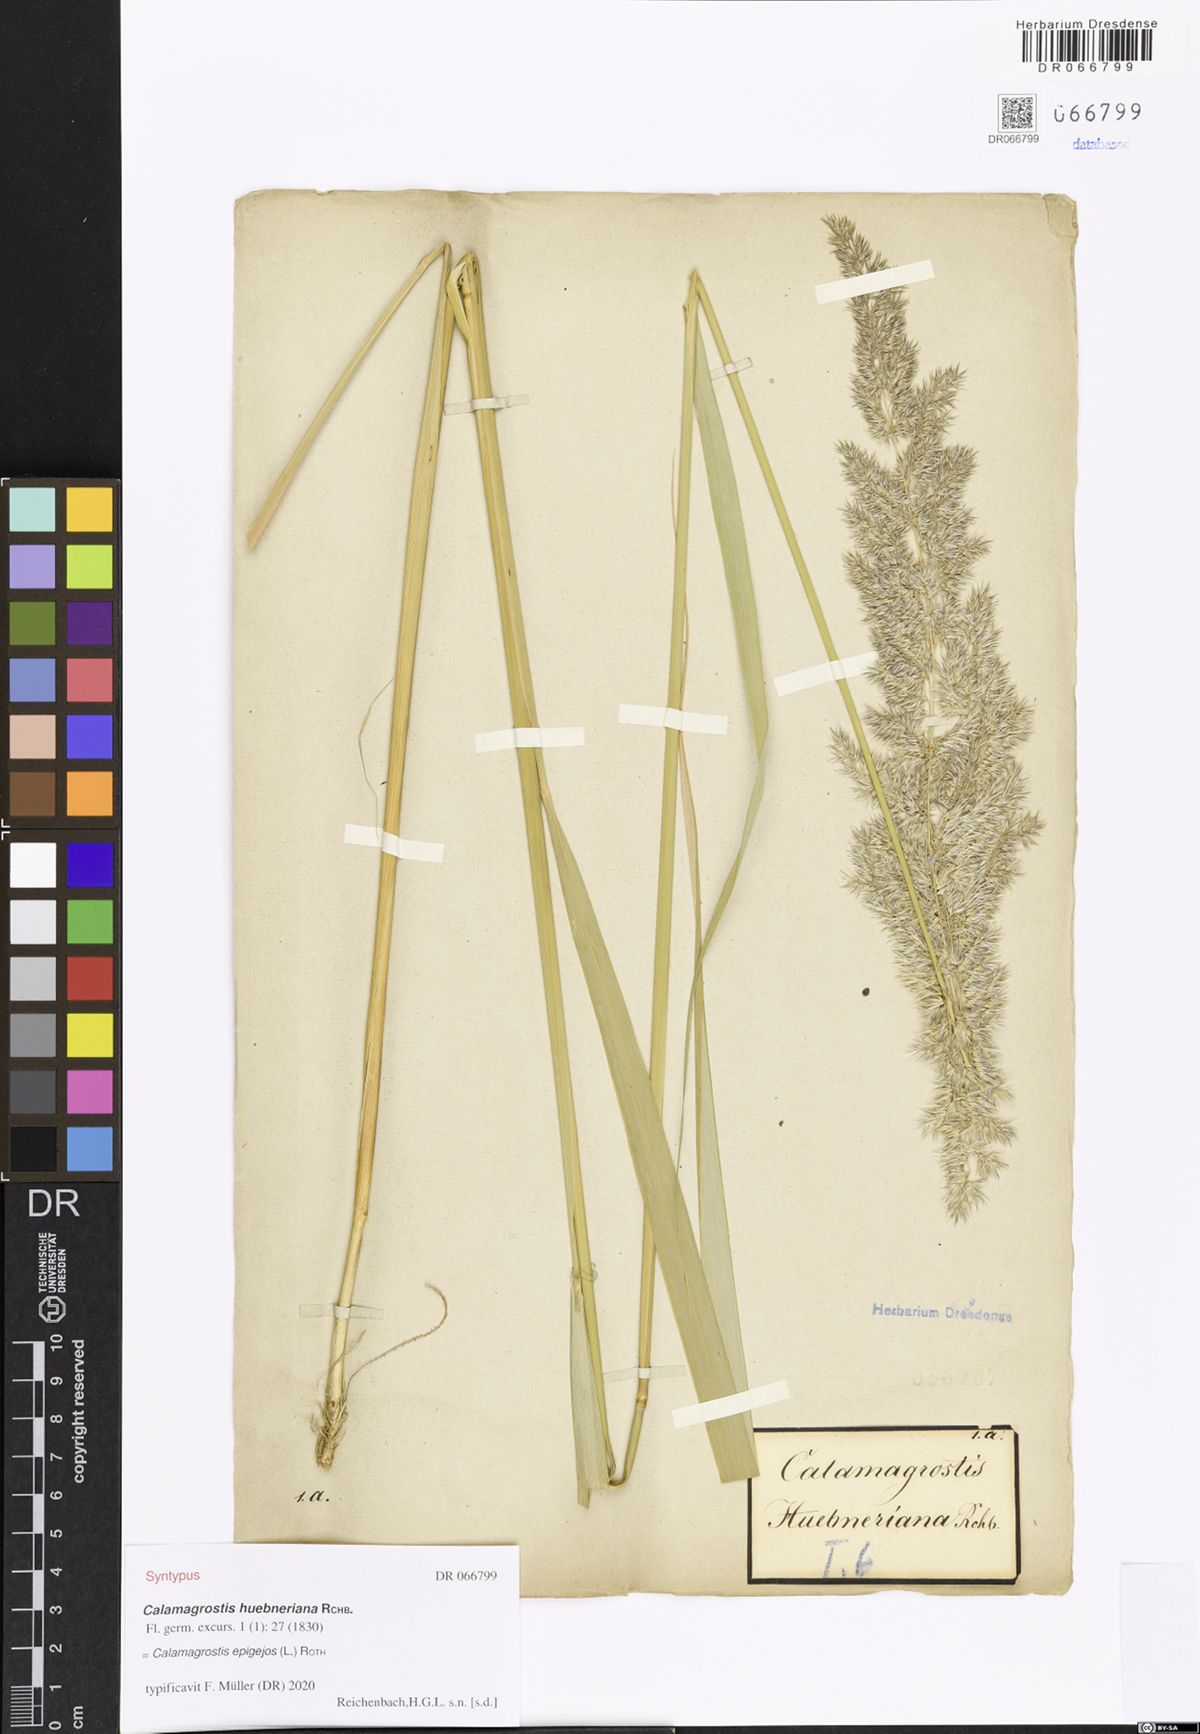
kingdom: Plantae
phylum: Tracheophyta
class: Liliopsida
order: Poales
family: Poaceae
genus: Calamagrostis
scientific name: Calamagrostis epigejos
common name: Wood small-reed
